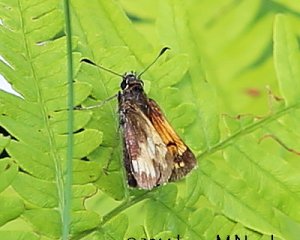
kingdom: Animalia
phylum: Arthropoda
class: Insecta
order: Lepidoptera
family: Hesperiidae
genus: Lon
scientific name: Lon hobomok
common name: Hobomok Skipper
